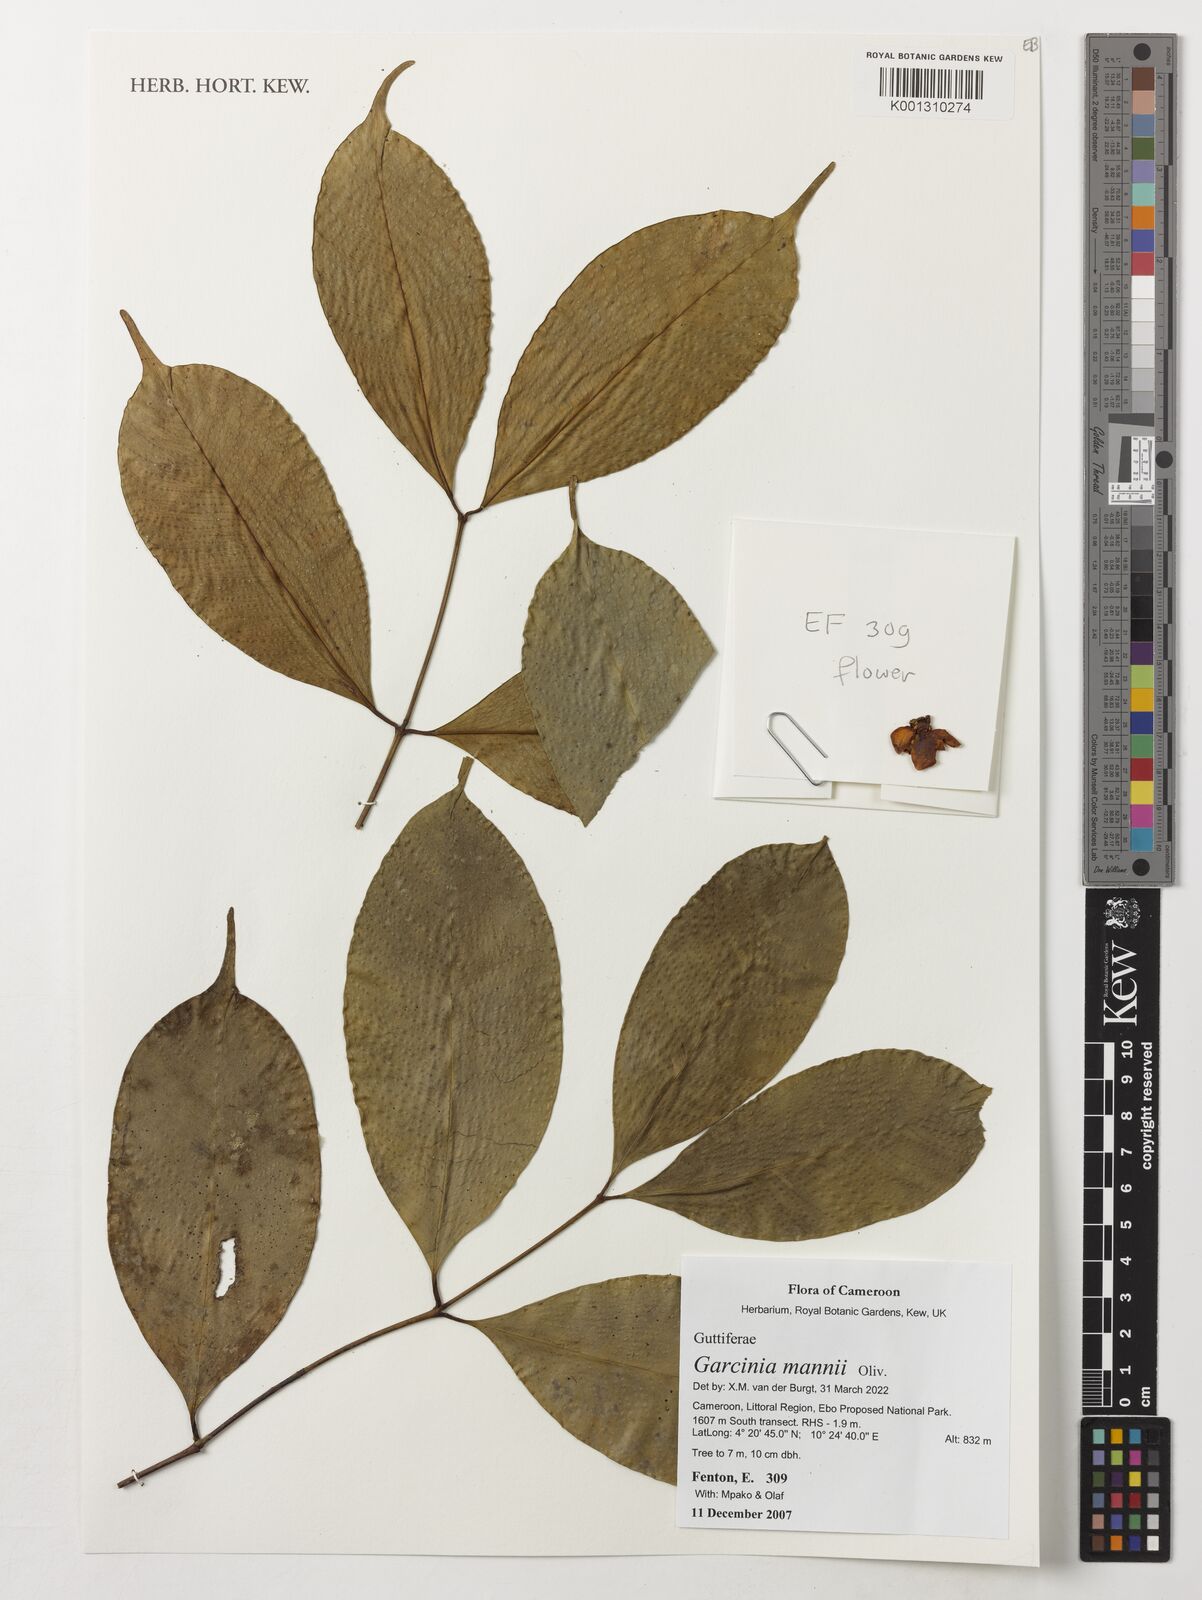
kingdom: Plantae
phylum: Tracheophyta
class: Magnoliopsida
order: Malpighiales
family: Clusiaceae
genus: Garcinia
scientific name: Garcinia mannii
